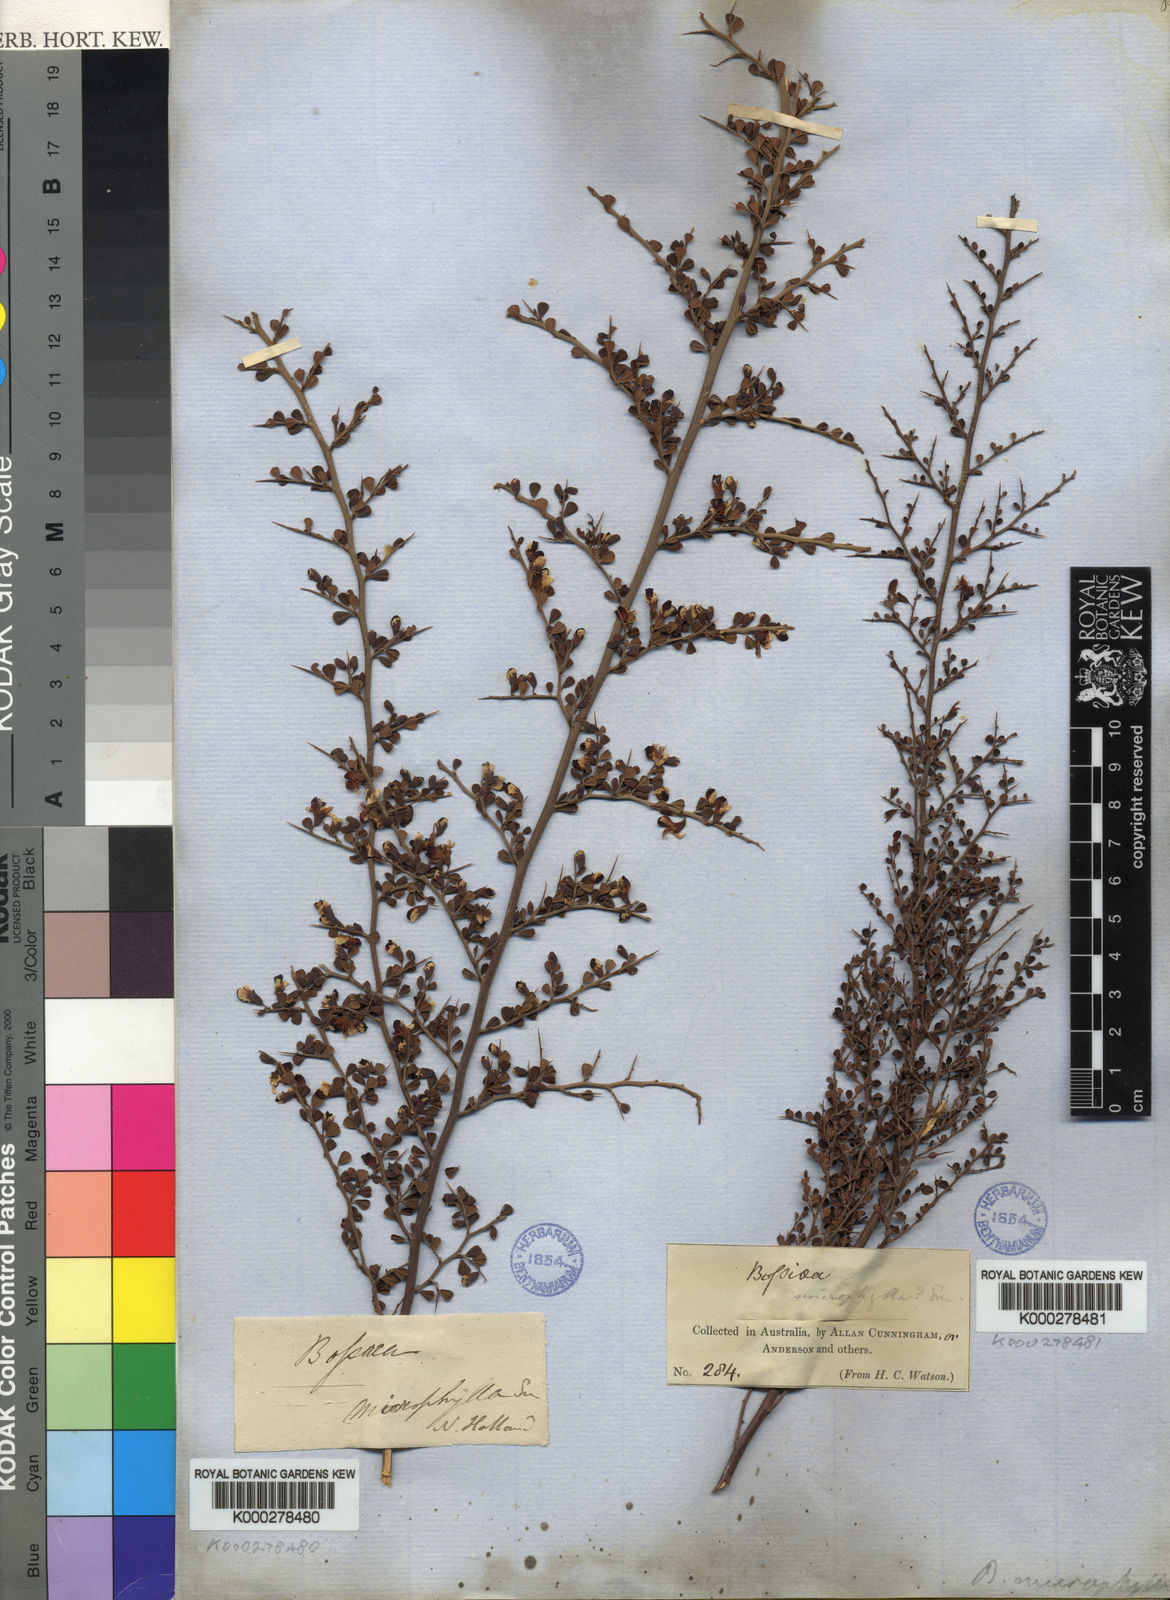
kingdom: Plantae
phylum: Tracheophyta
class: Magnoliopsida
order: Fabales
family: Fabaceae
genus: Bossiaea
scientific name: Bossiaea obcordata
